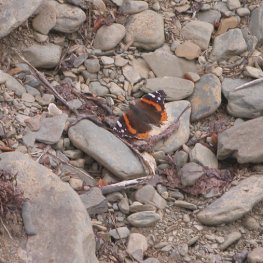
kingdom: Animalia
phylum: Arthropoda
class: Insecta
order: Lepidoptera
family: Nymphalidae
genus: Vanessa
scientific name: Vanessa atalanta
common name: Red Admiral
